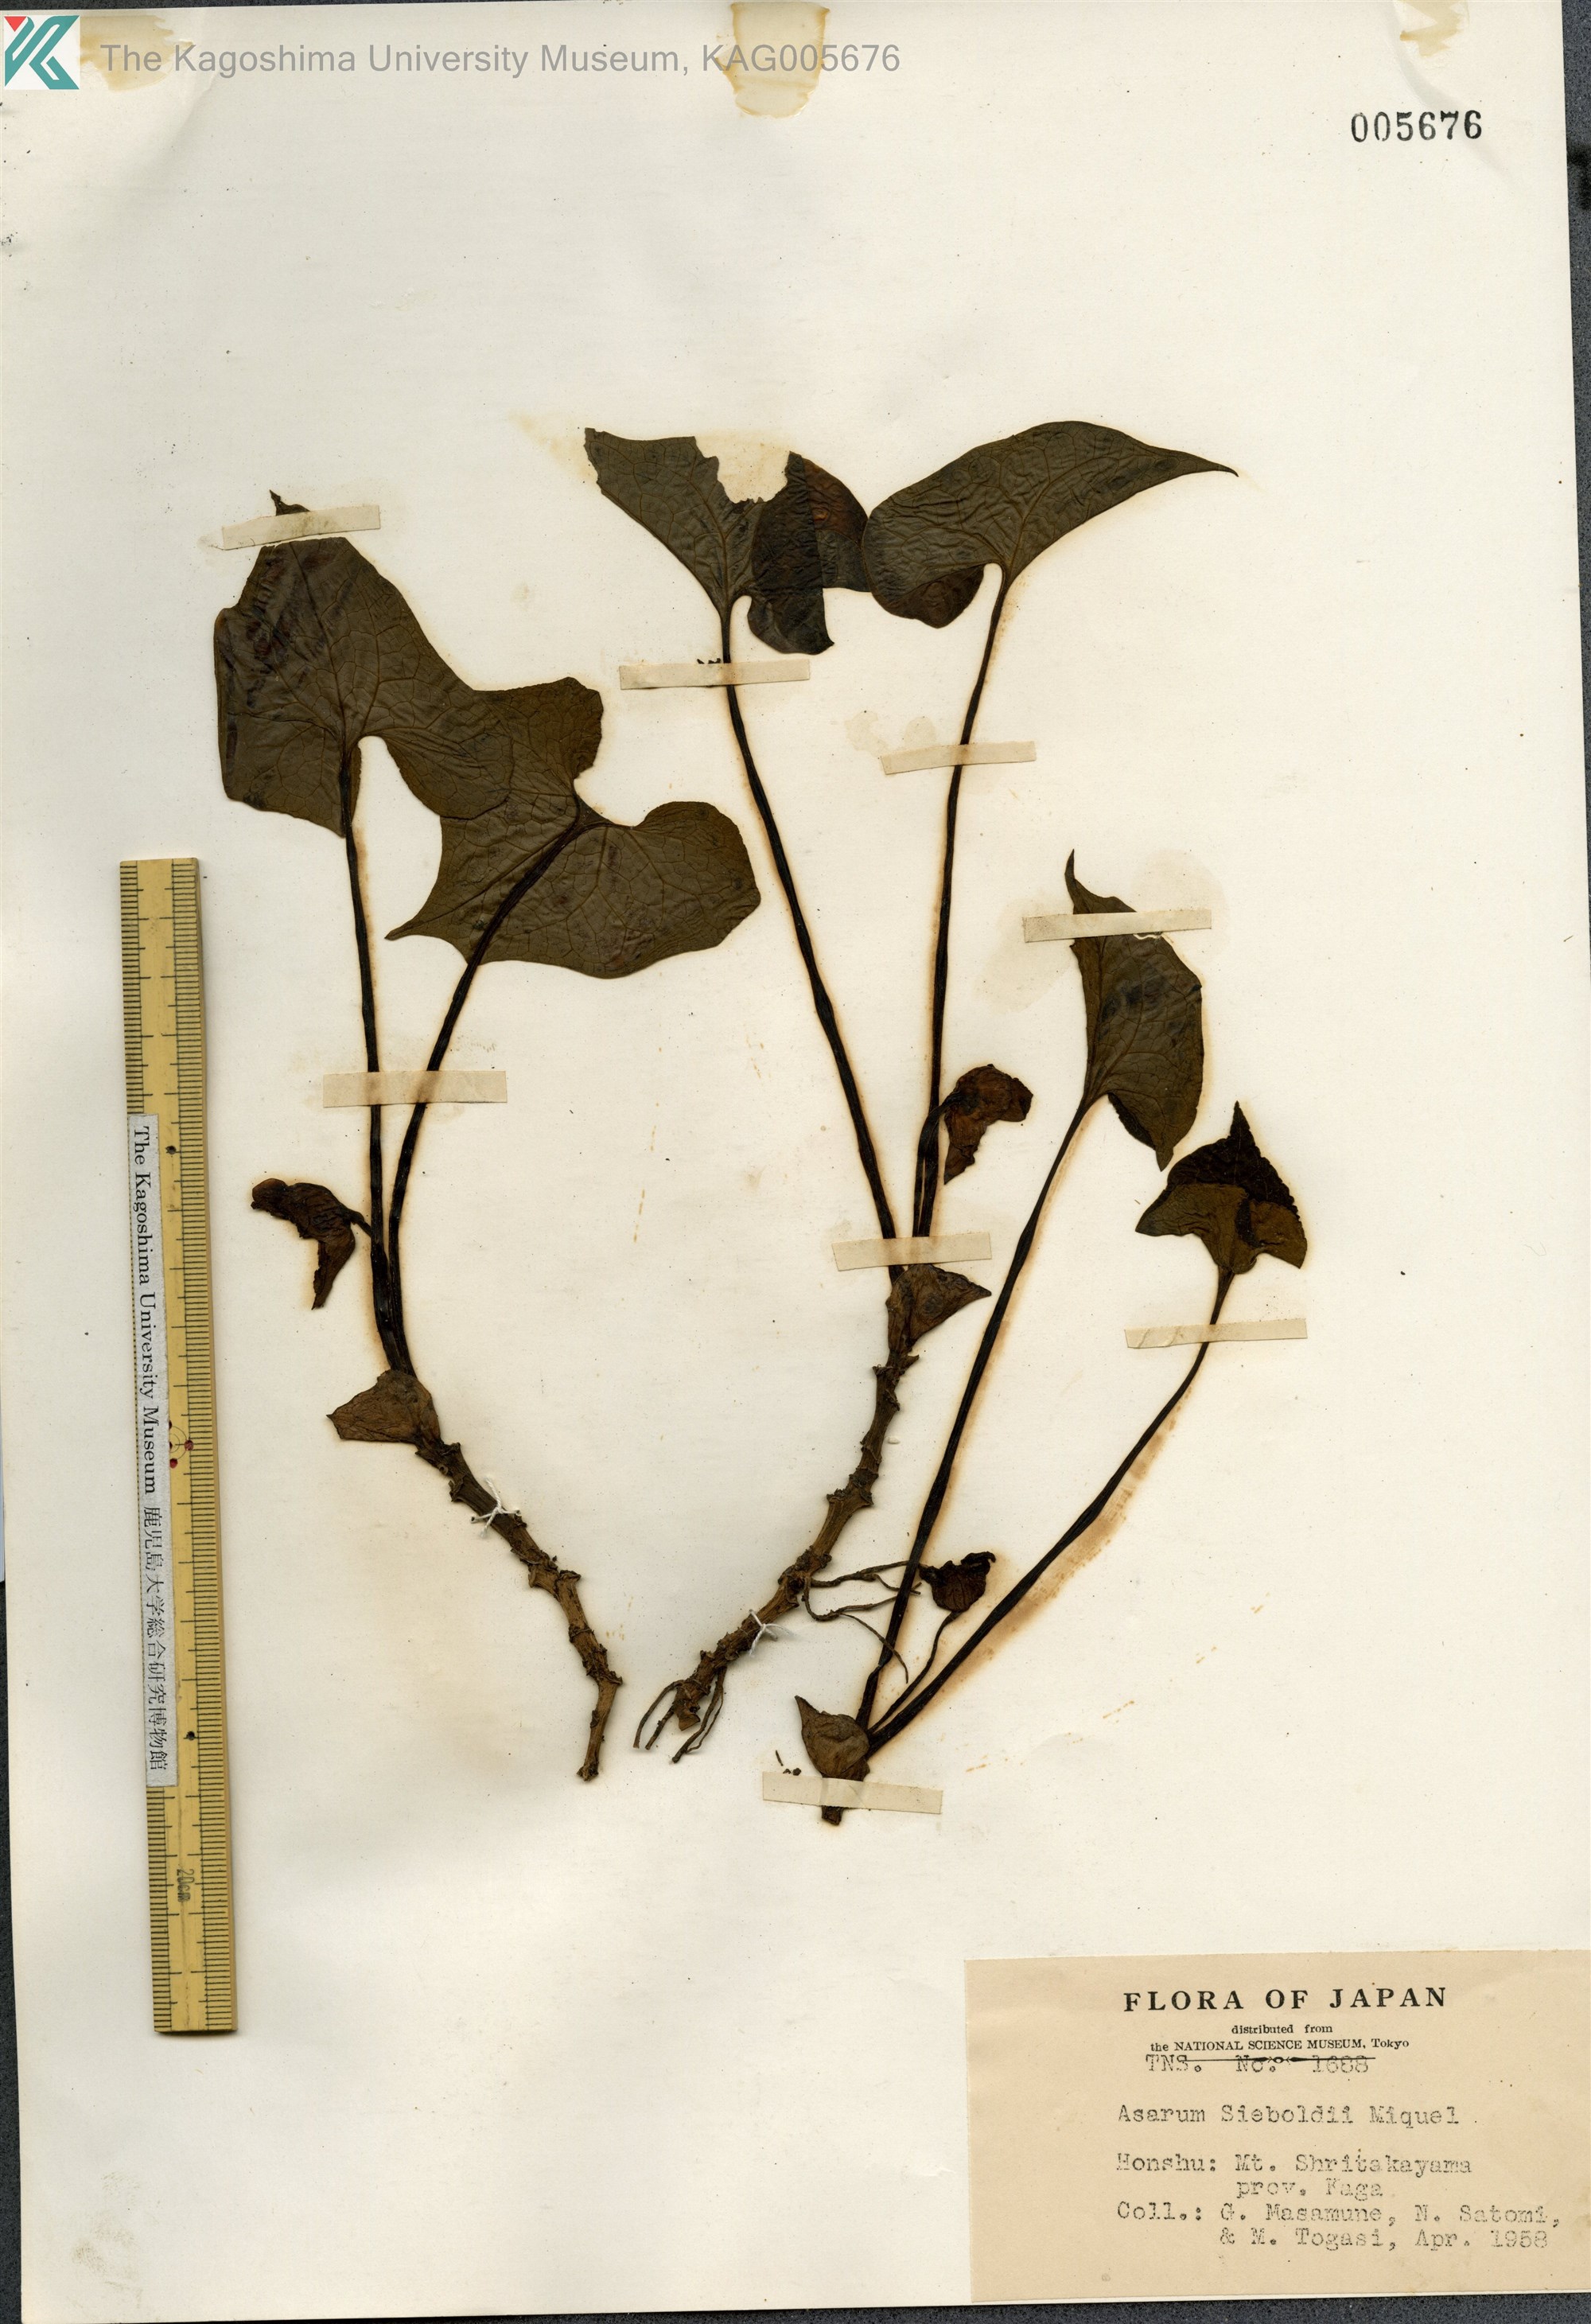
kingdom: Plantae
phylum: Tracheophyta
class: Magnoliopsida
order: Piperales
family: Aristolochiaceae
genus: Asarum
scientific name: Asarum sieboldii
